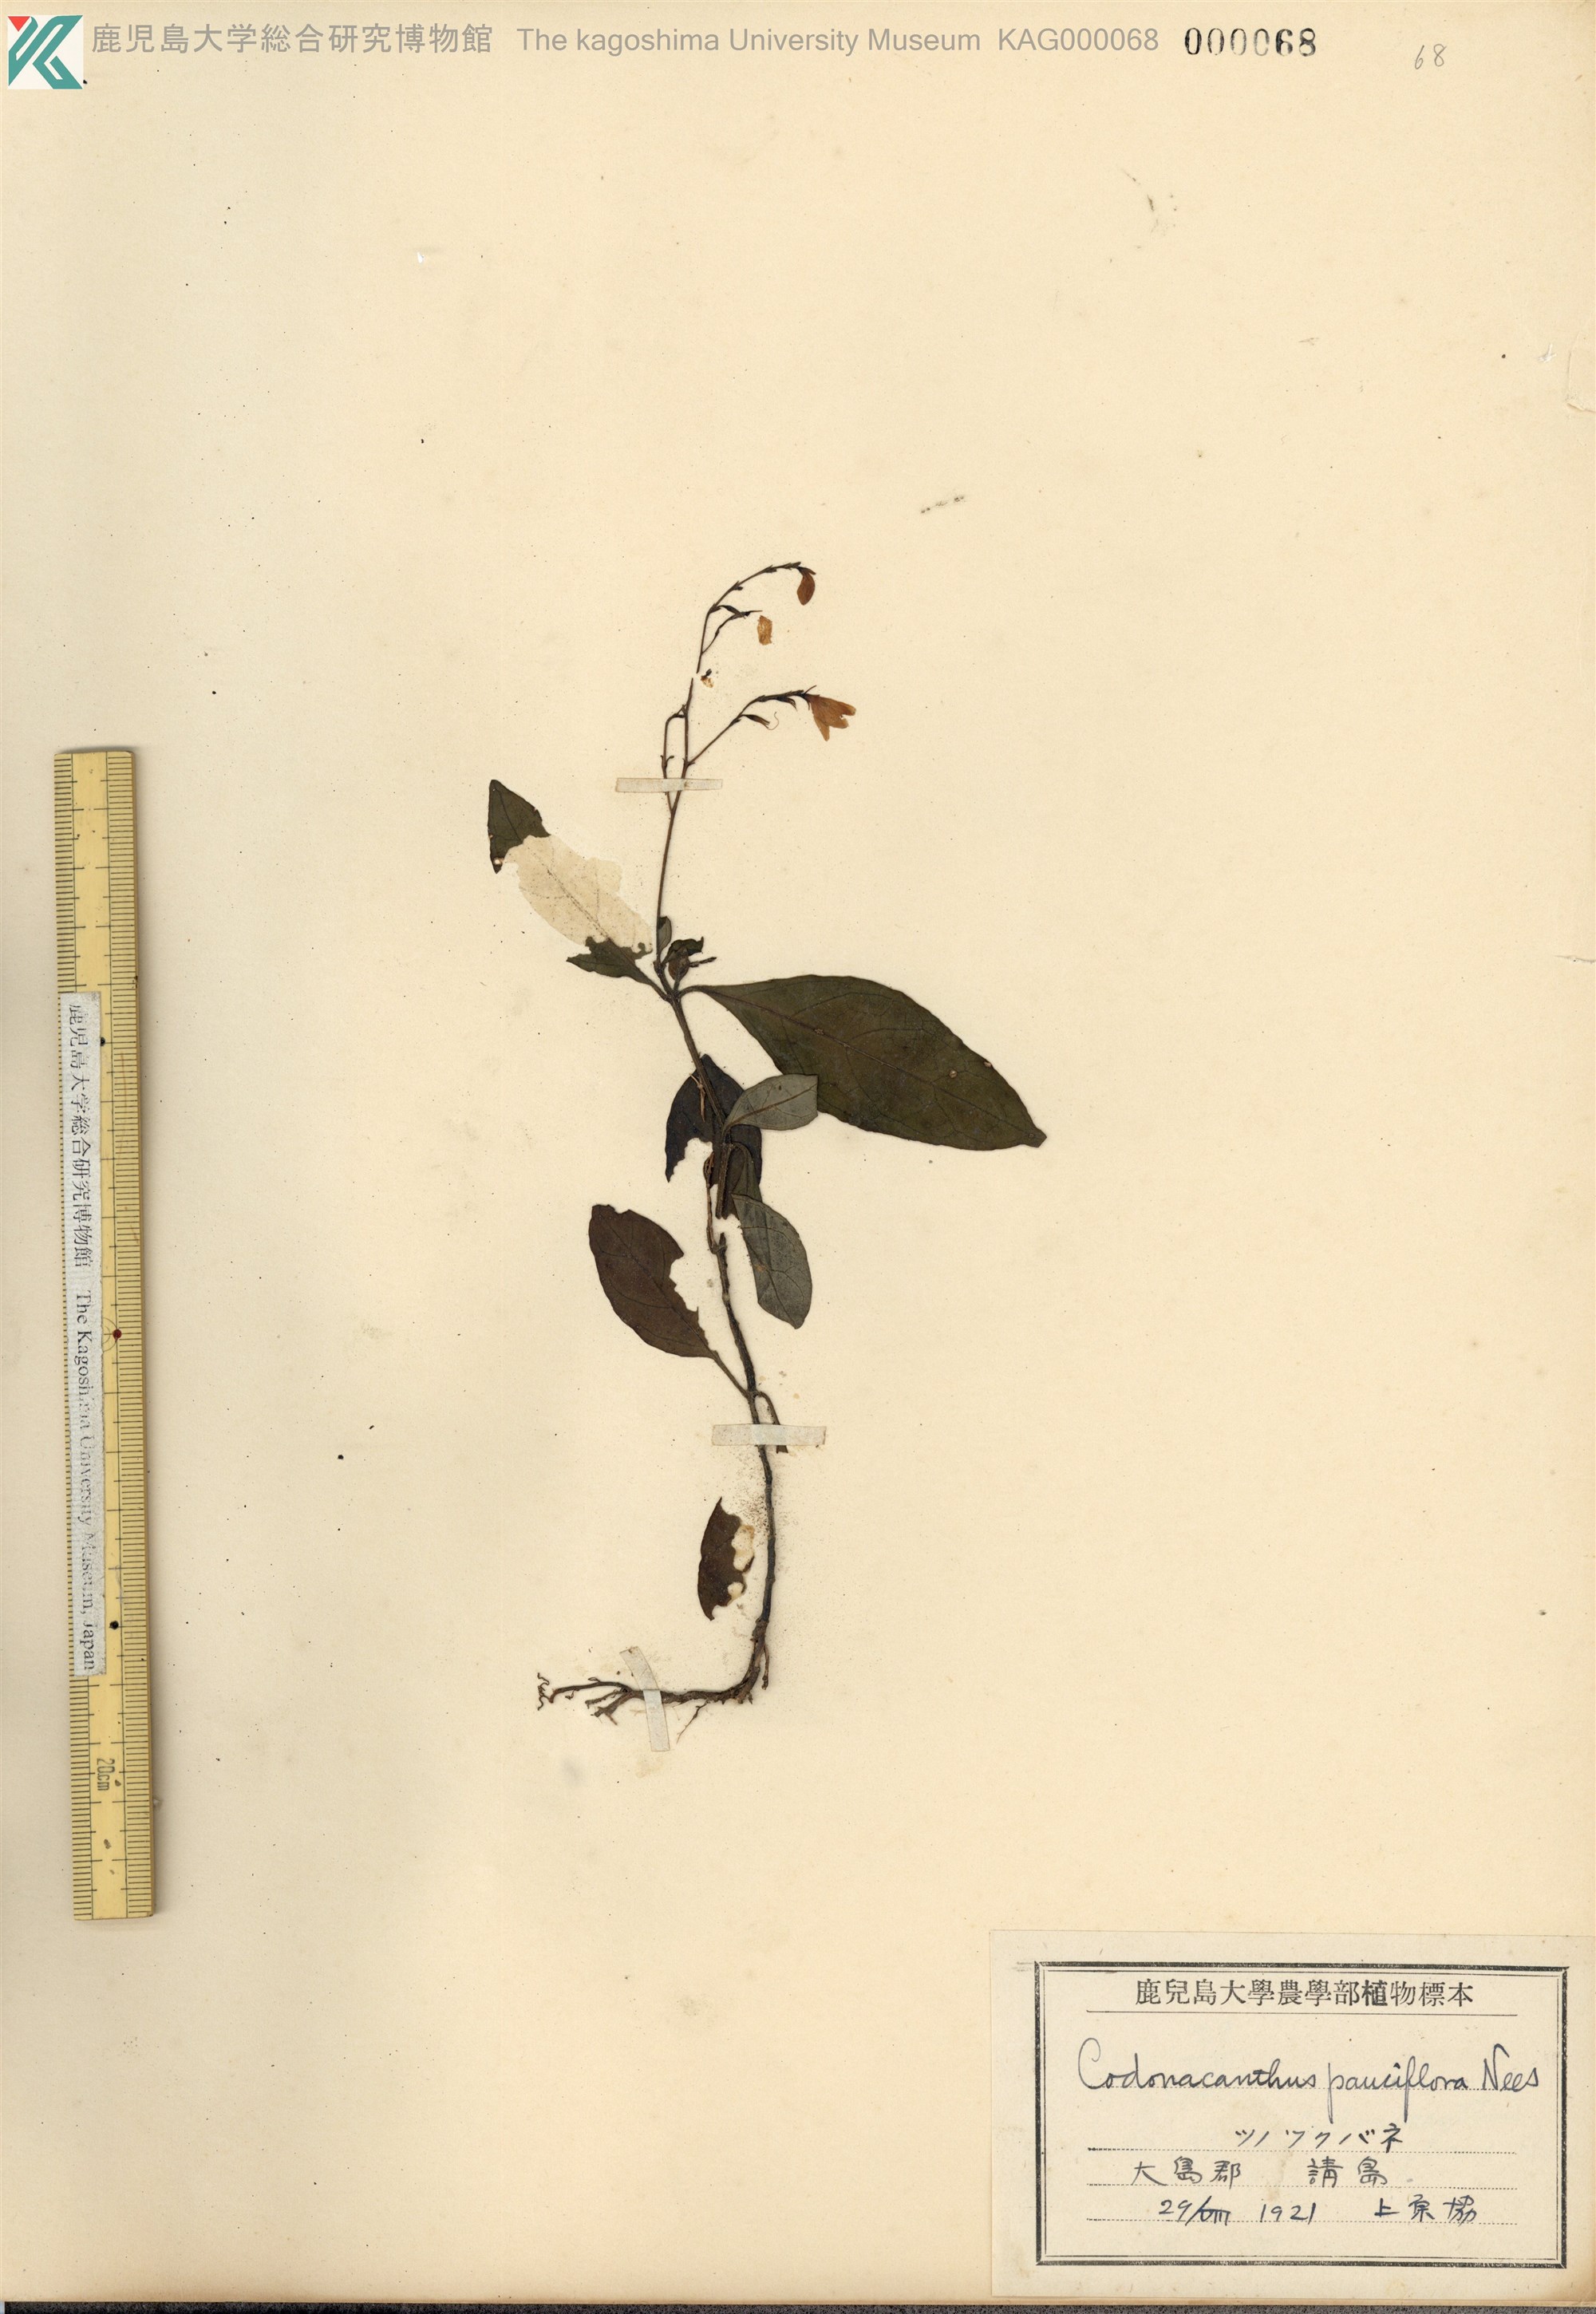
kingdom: Plantae
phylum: Tracheophyta
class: Magnoliopsida
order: Lamiales
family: Acanthaceae
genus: Codonacanthus
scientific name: Codonacanthus pauciflorus
